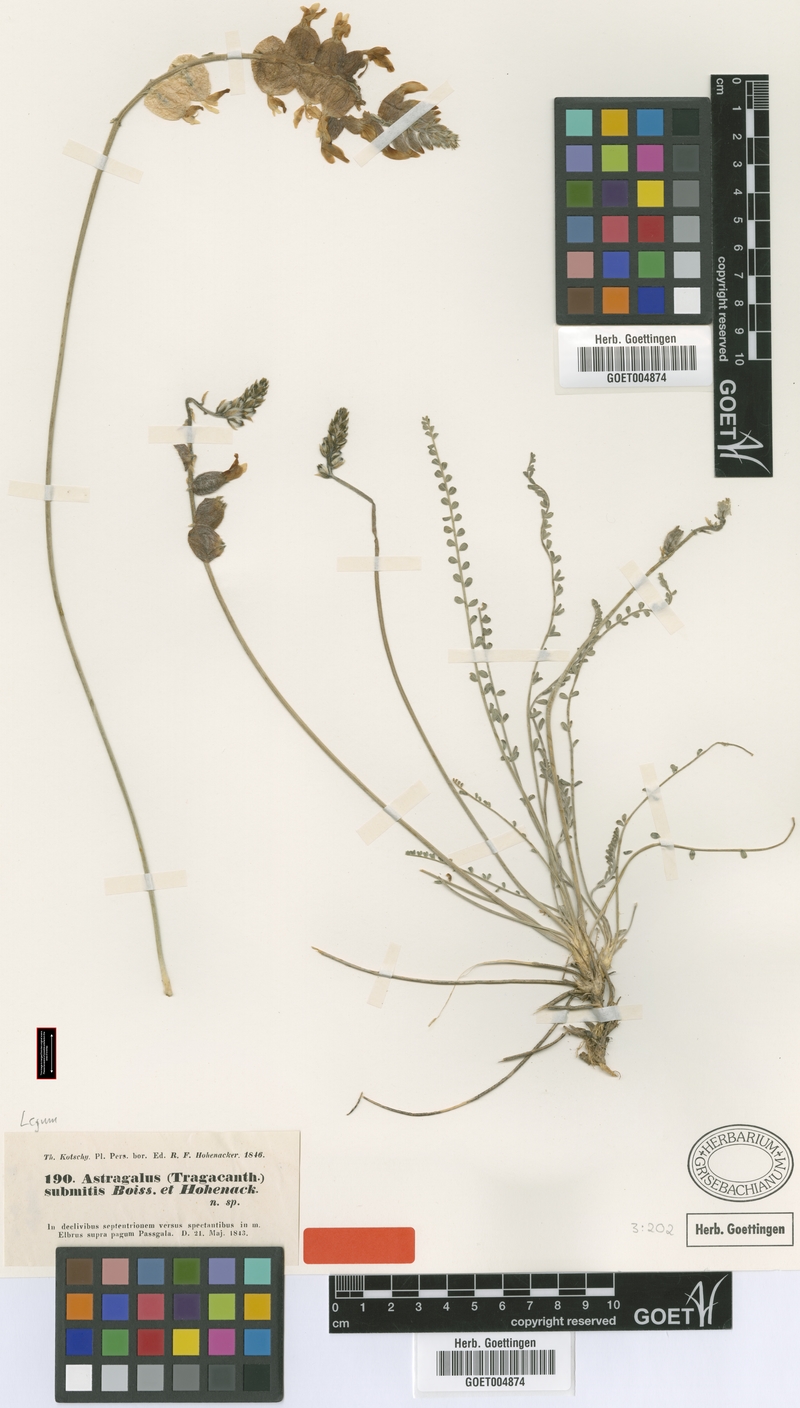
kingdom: Plantae
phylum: Tracheophyta
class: Magnoliopsida
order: Fabales
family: Fabaceae
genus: Astragalus
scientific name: Astragalus submitis
